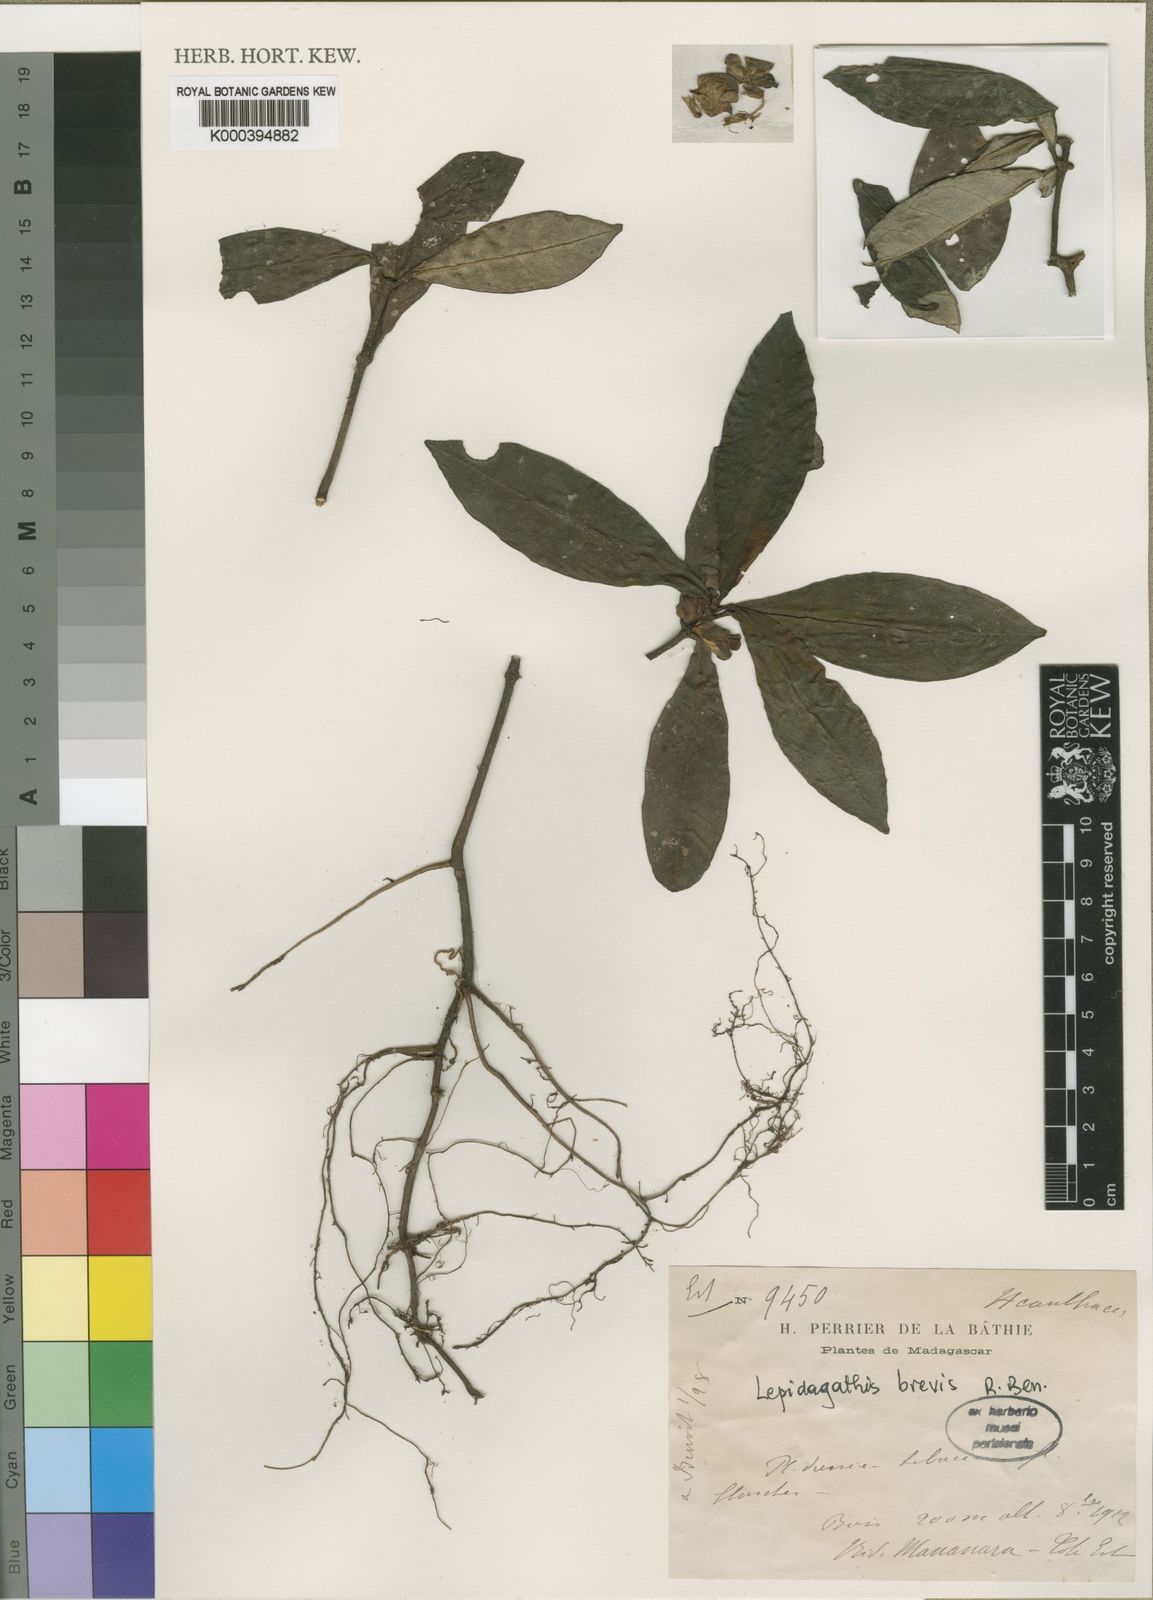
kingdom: Plantae
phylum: Tracheophyta
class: Magnoliopsida
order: Lamiales
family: Acanthaceae
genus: Lepidagathis
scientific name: Lepidagathis brevis
